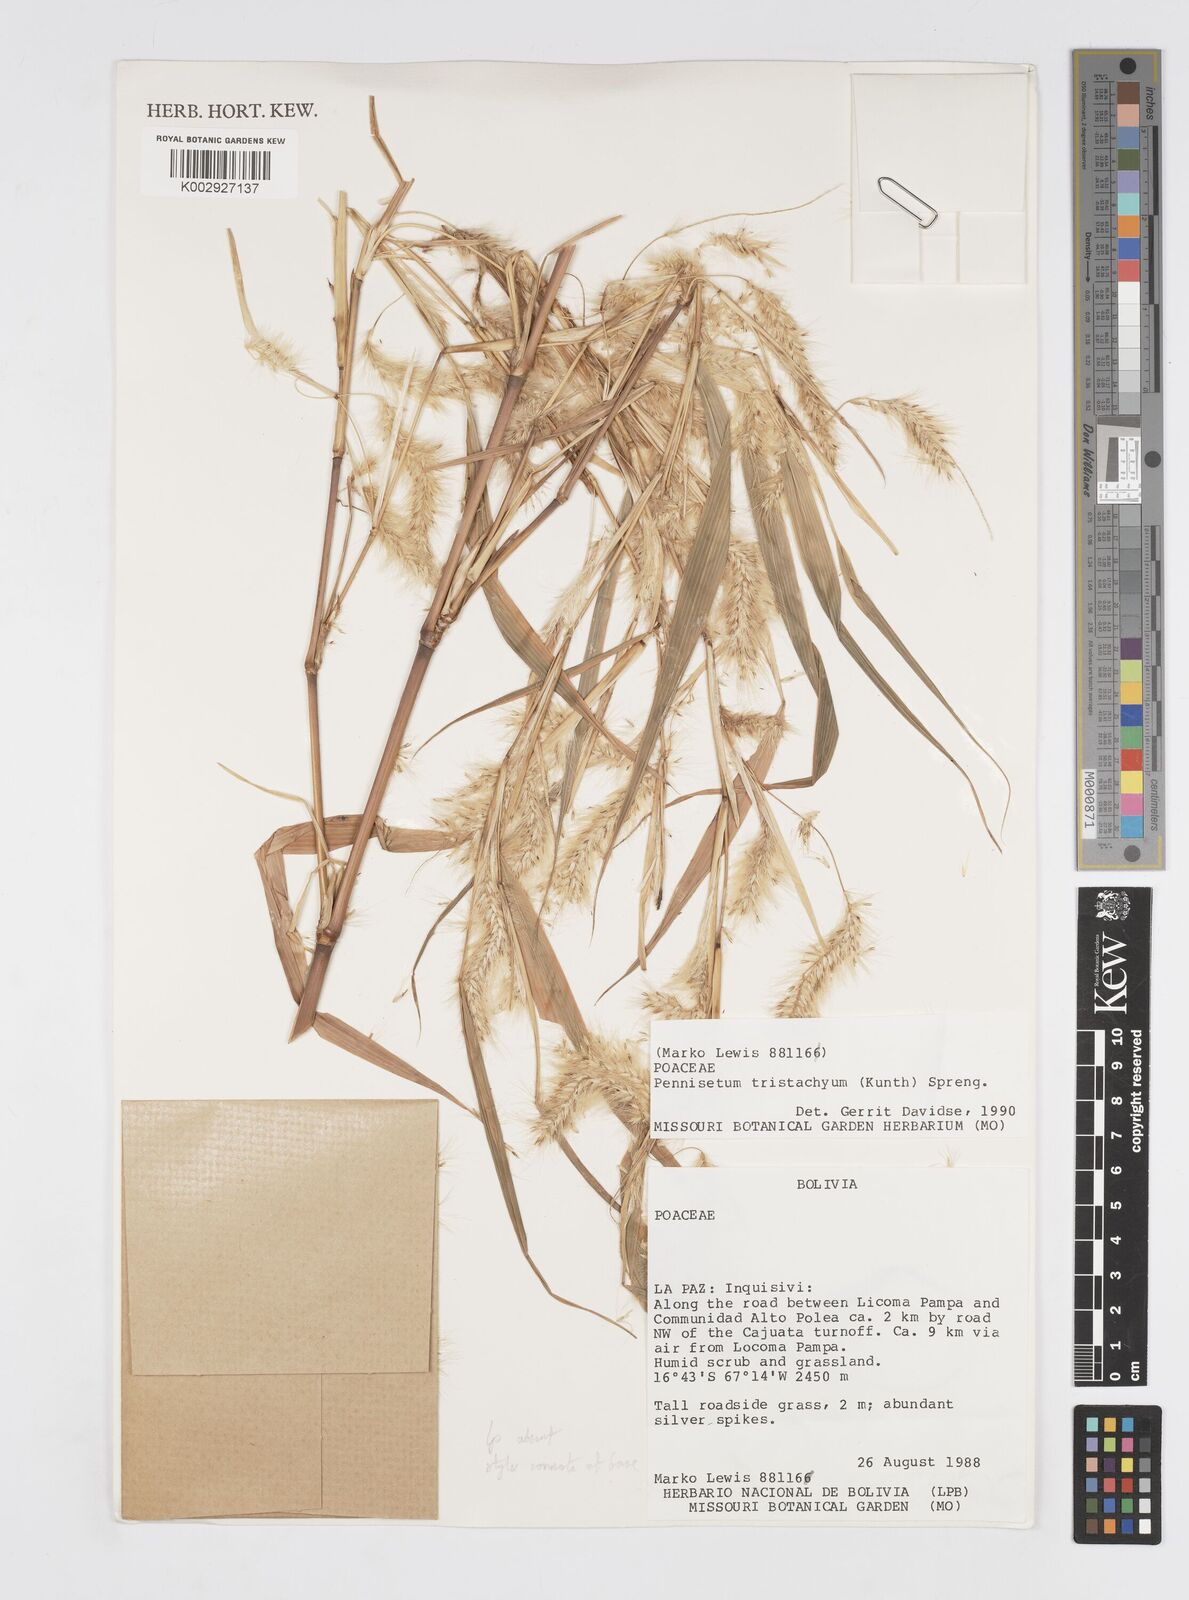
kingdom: Plantae
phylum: Tracheophyta
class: Liliopsida
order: Poales
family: Poaceae
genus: Cenchrus
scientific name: Cenchrus tristachyus
